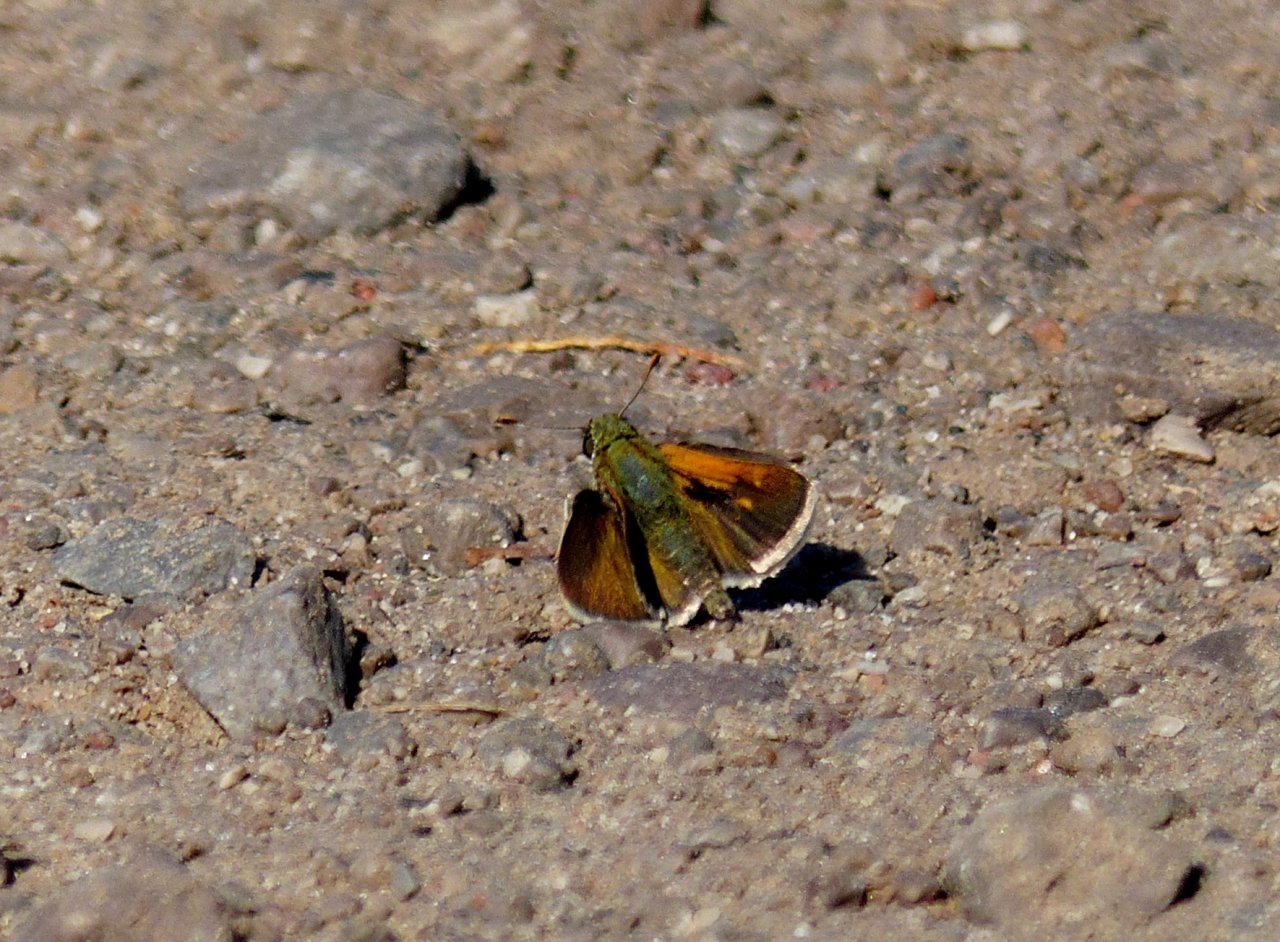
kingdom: Animalia
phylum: Arthropoda
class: Insecta
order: Lepidoptera
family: Hesperiidae
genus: Polites
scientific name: Polites themistocles
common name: Tawny-edged Skipper
